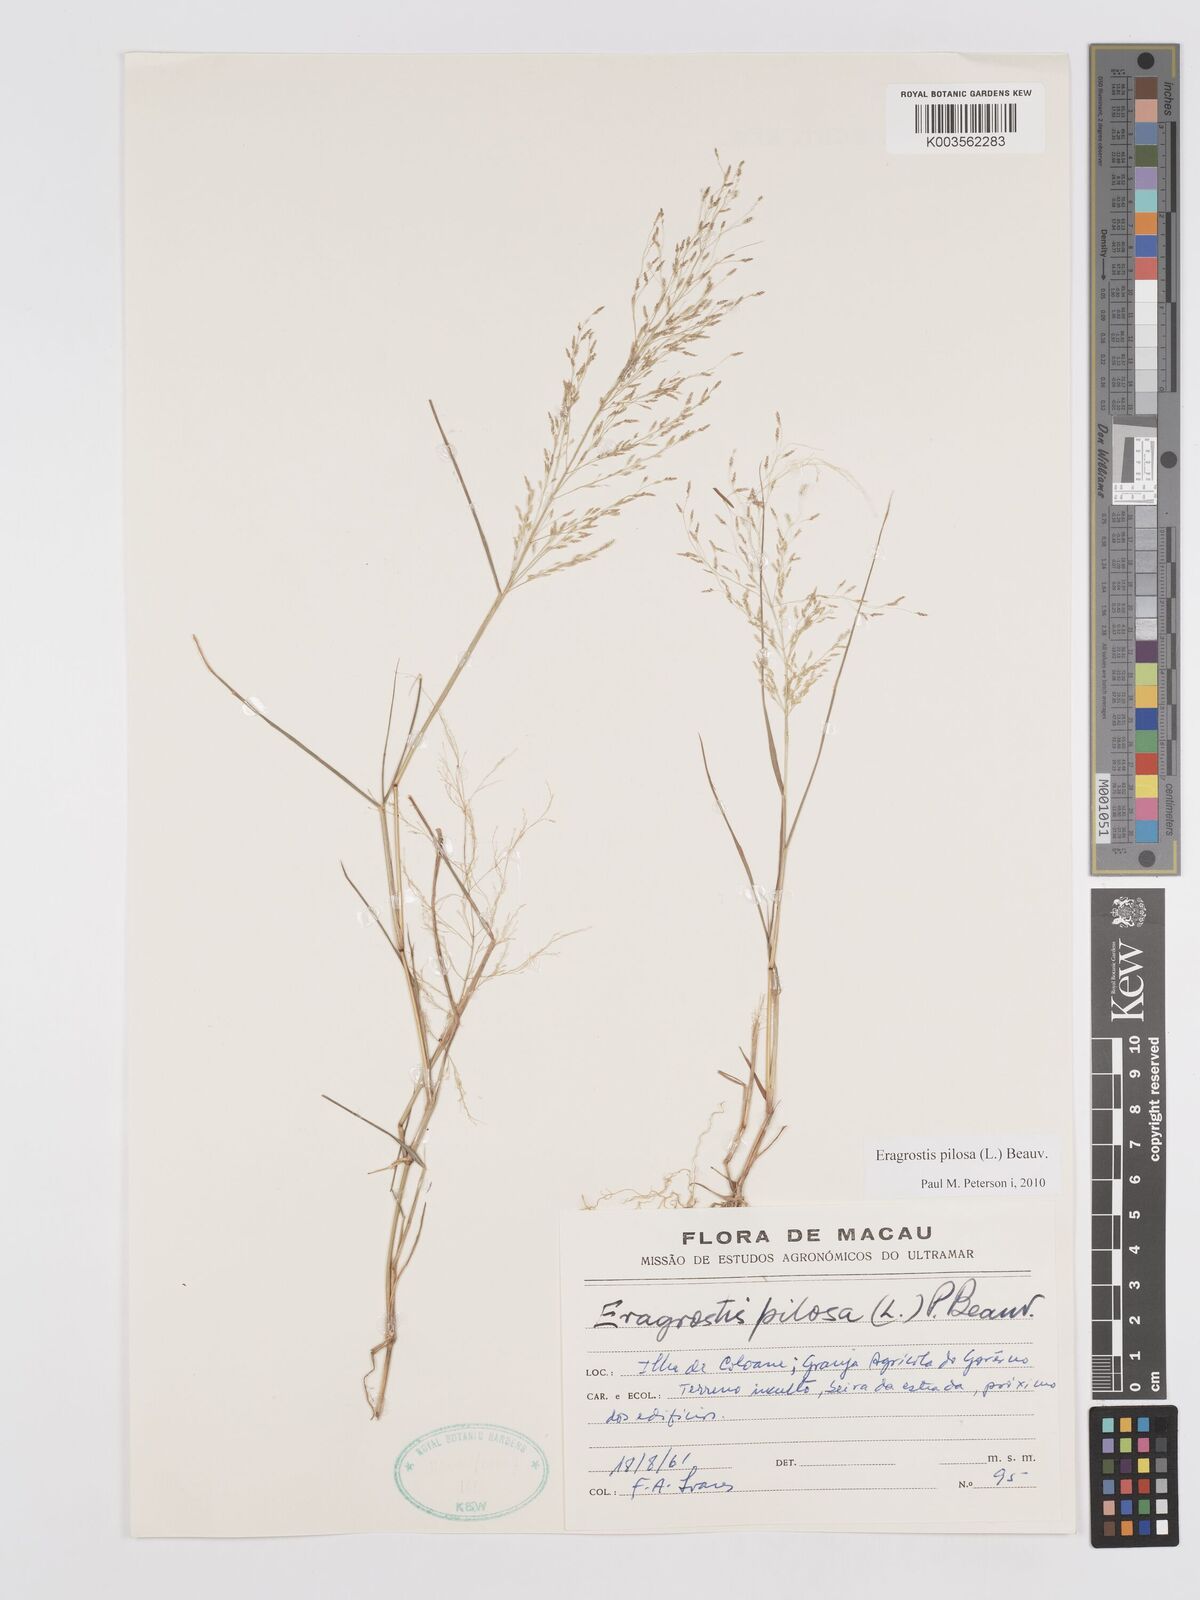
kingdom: Plantae
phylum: Tracheophyta
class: Liliopsida
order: Poales
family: Poaceae
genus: Eragrostis
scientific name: Eragrostis pilosa
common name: Indian lovegrass
